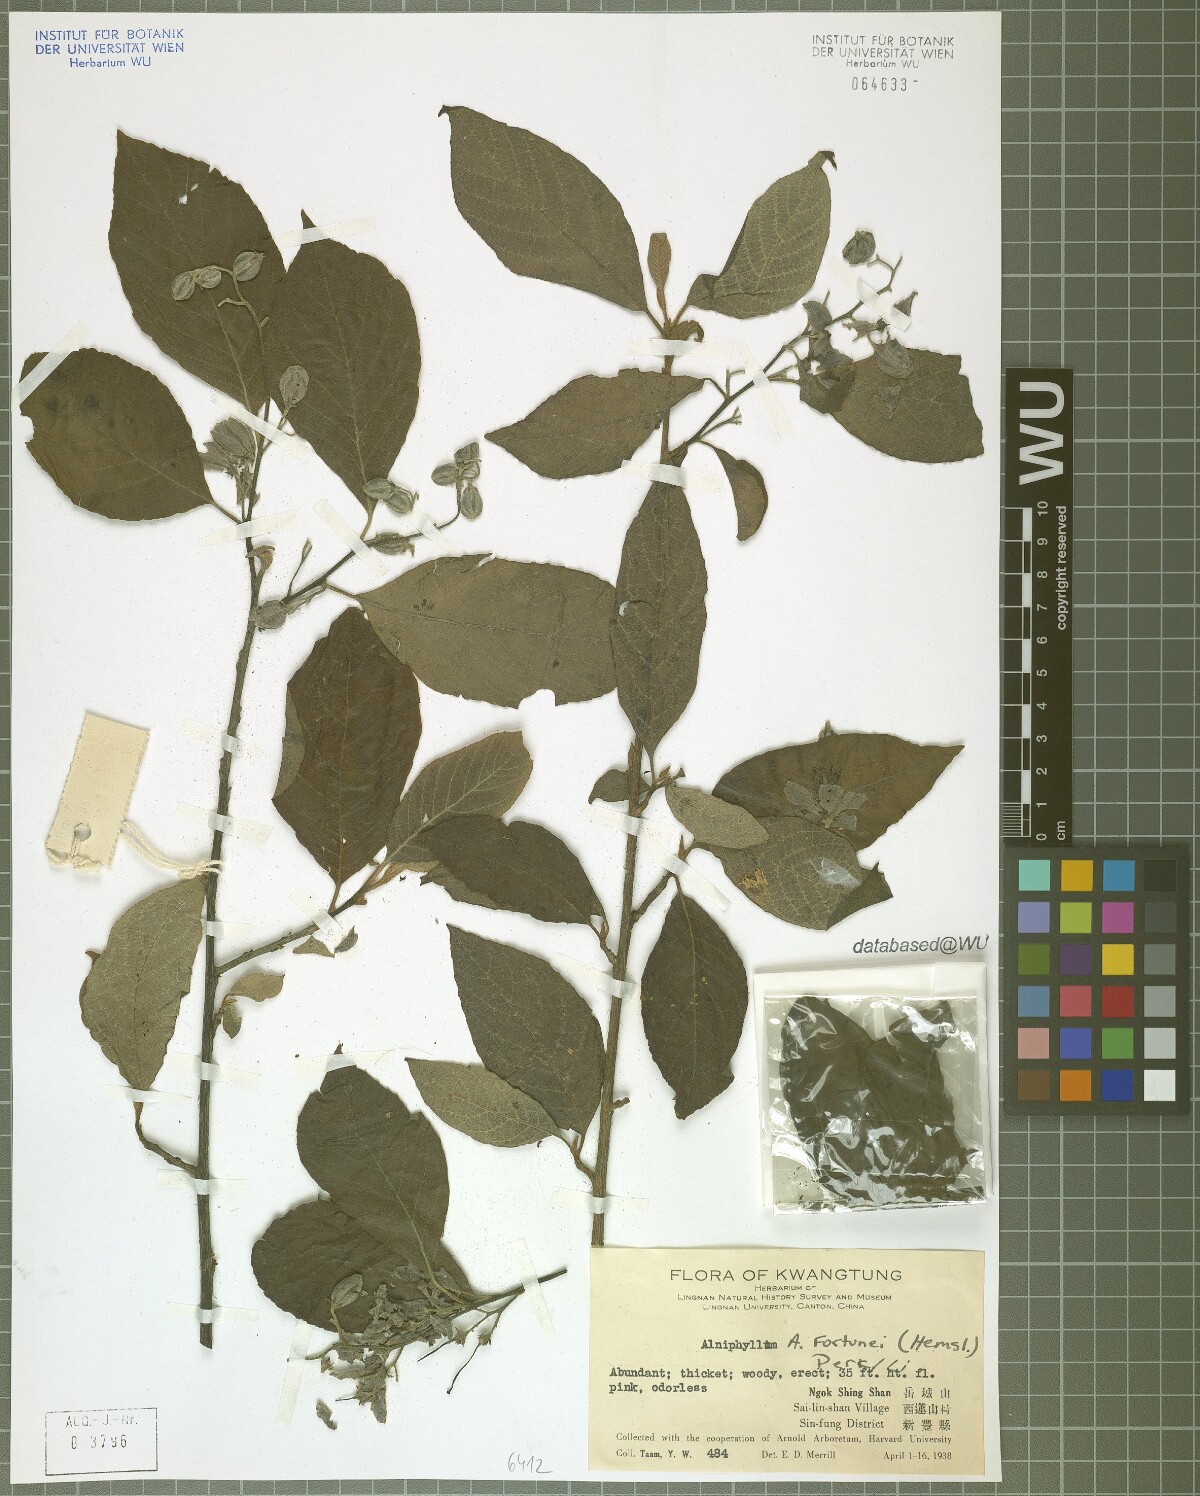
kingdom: Plantae
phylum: Tracheophyta
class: Magnoliopsida
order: Ericales
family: Styracaceae
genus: Alniphyllum
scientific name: Alniphyllum fortunei
